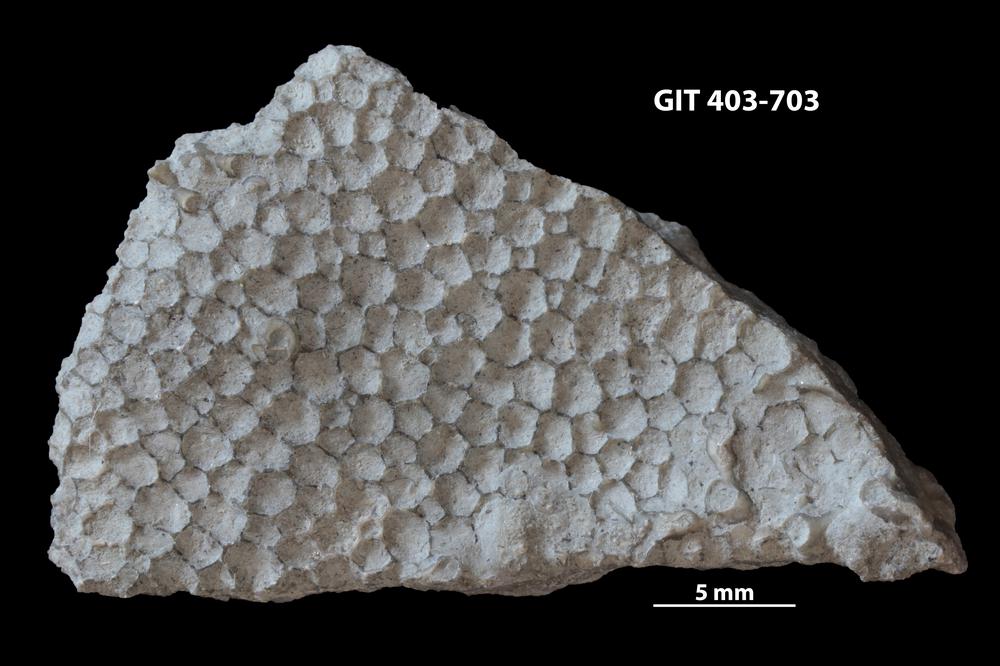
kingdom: Animalia
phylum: Cnidaria
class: Anthozoa
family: Favositidae
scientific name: Favositidae
